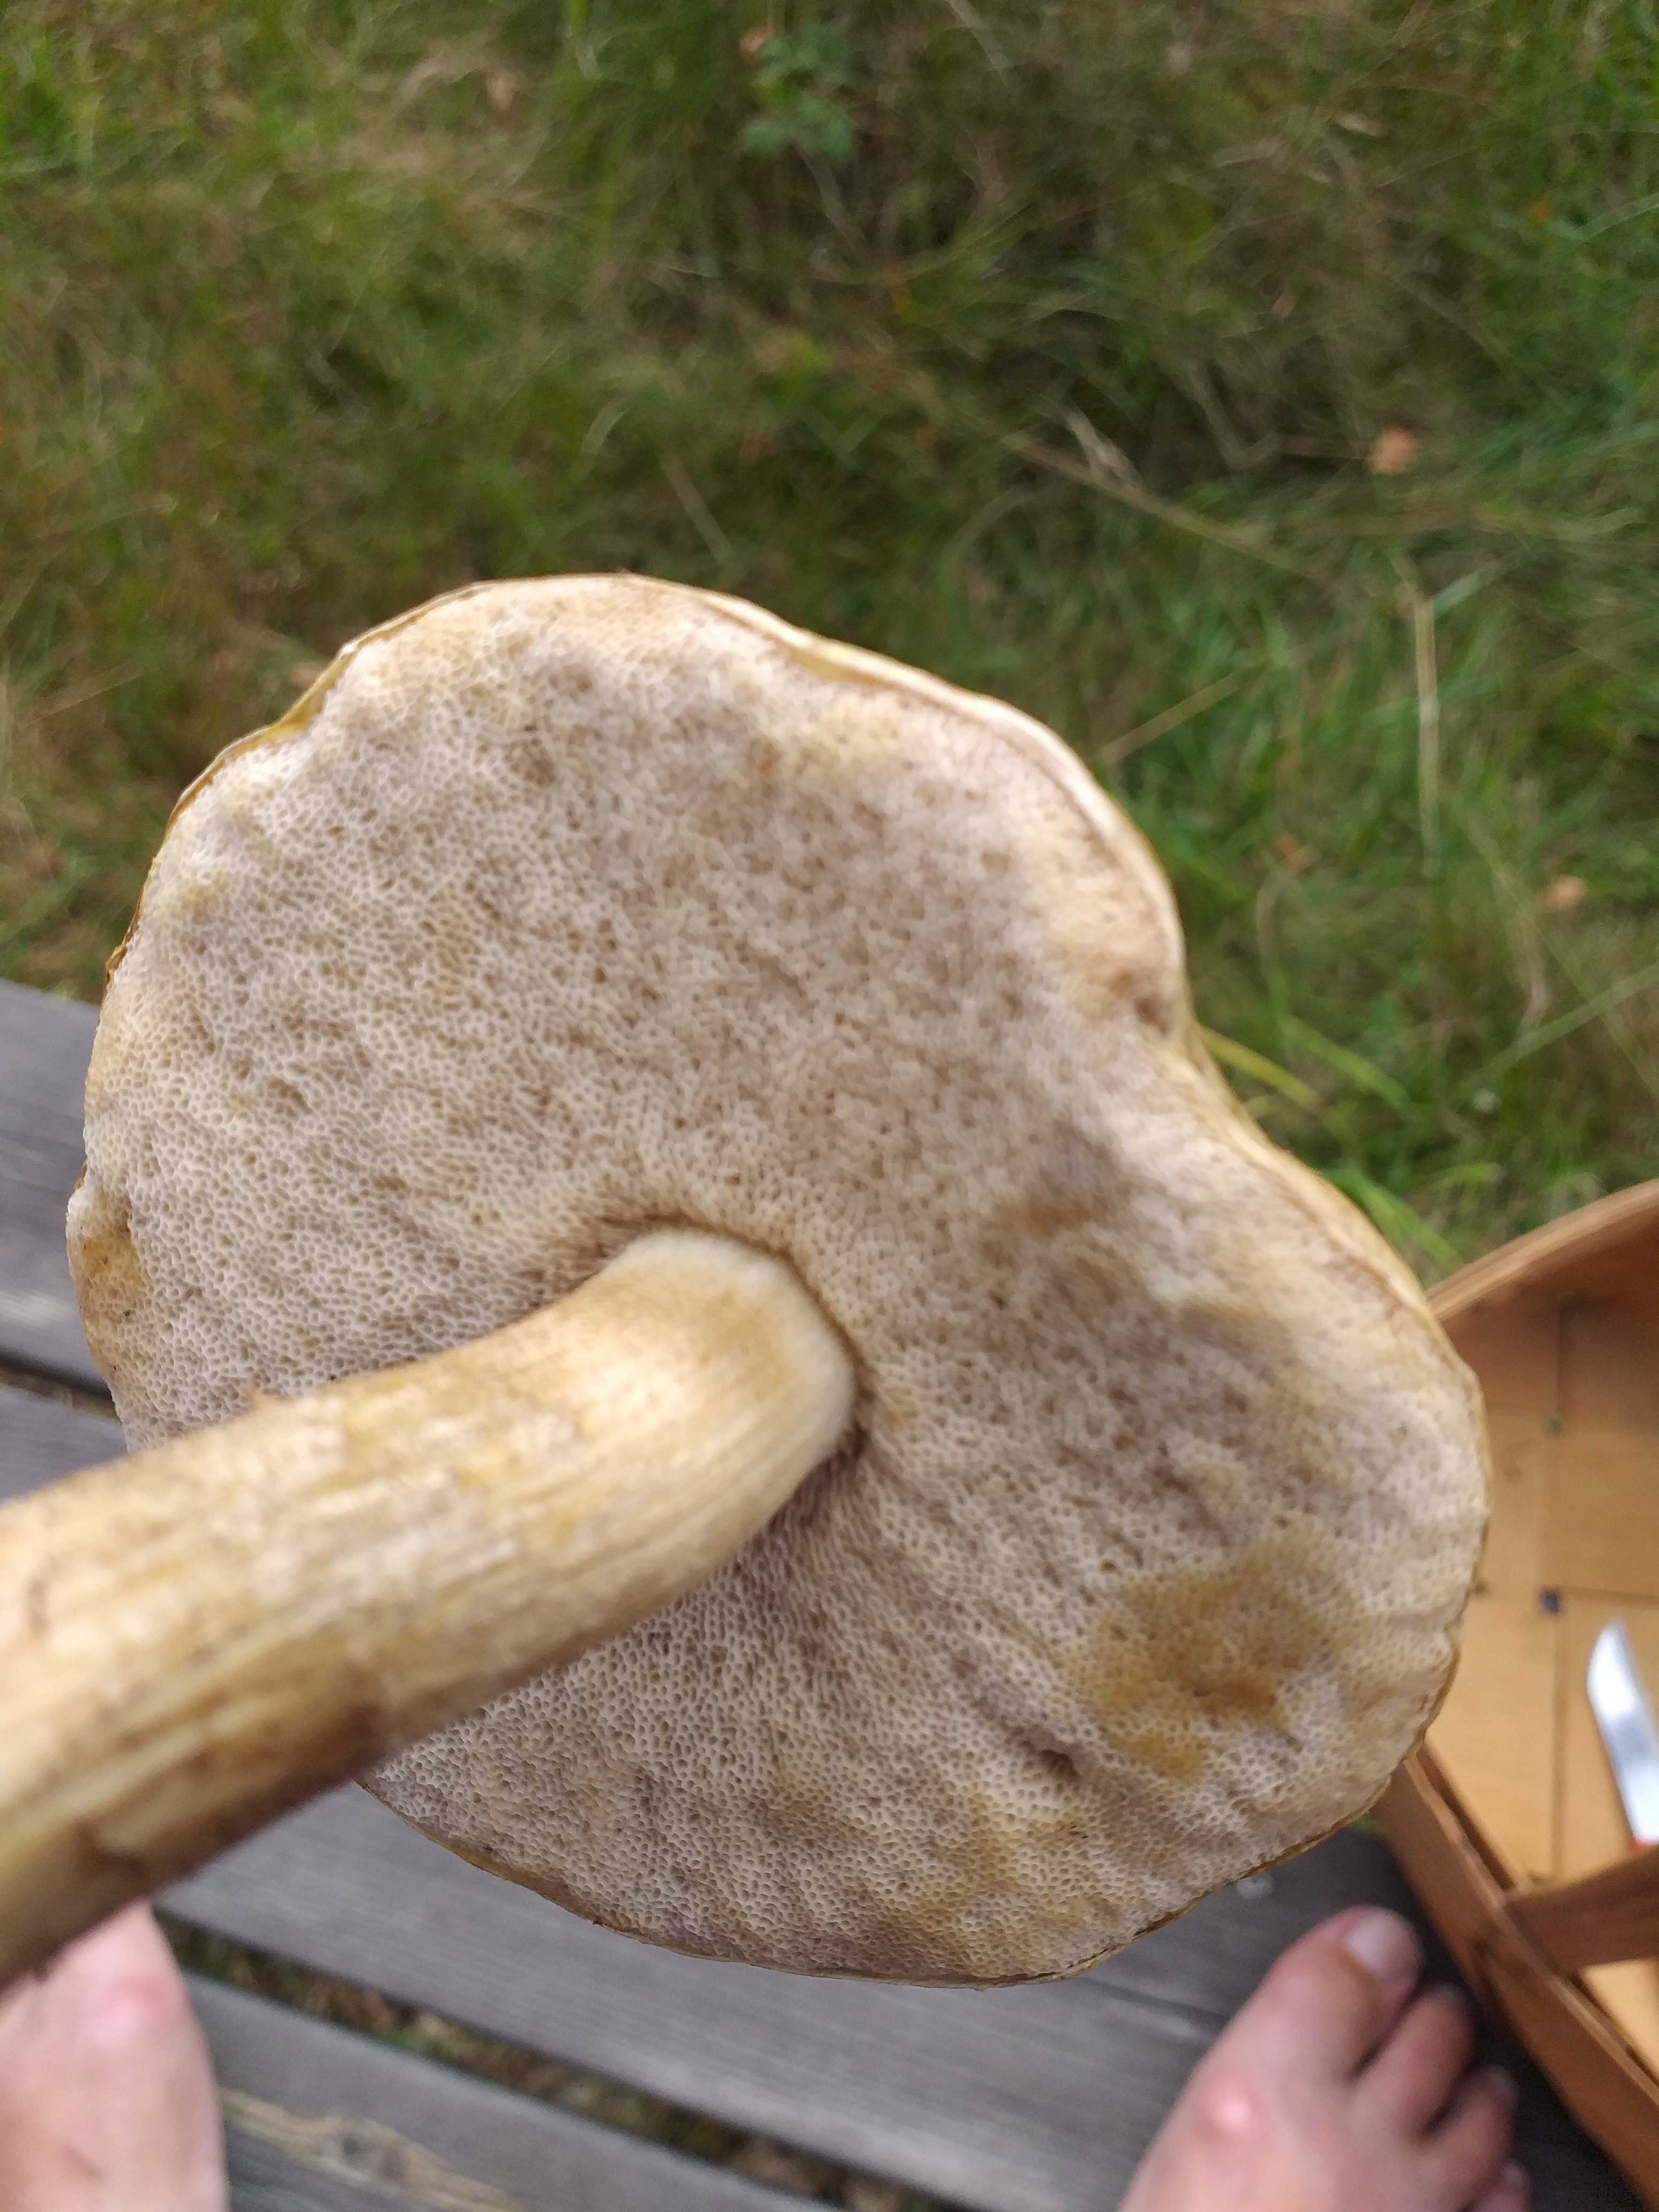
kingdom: Fungi
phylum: Basidiomycota
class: Agaricomycetes
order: Boletales
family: Boletaceae
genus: Leccinum
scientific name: Leccinum
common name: skælrørhat
